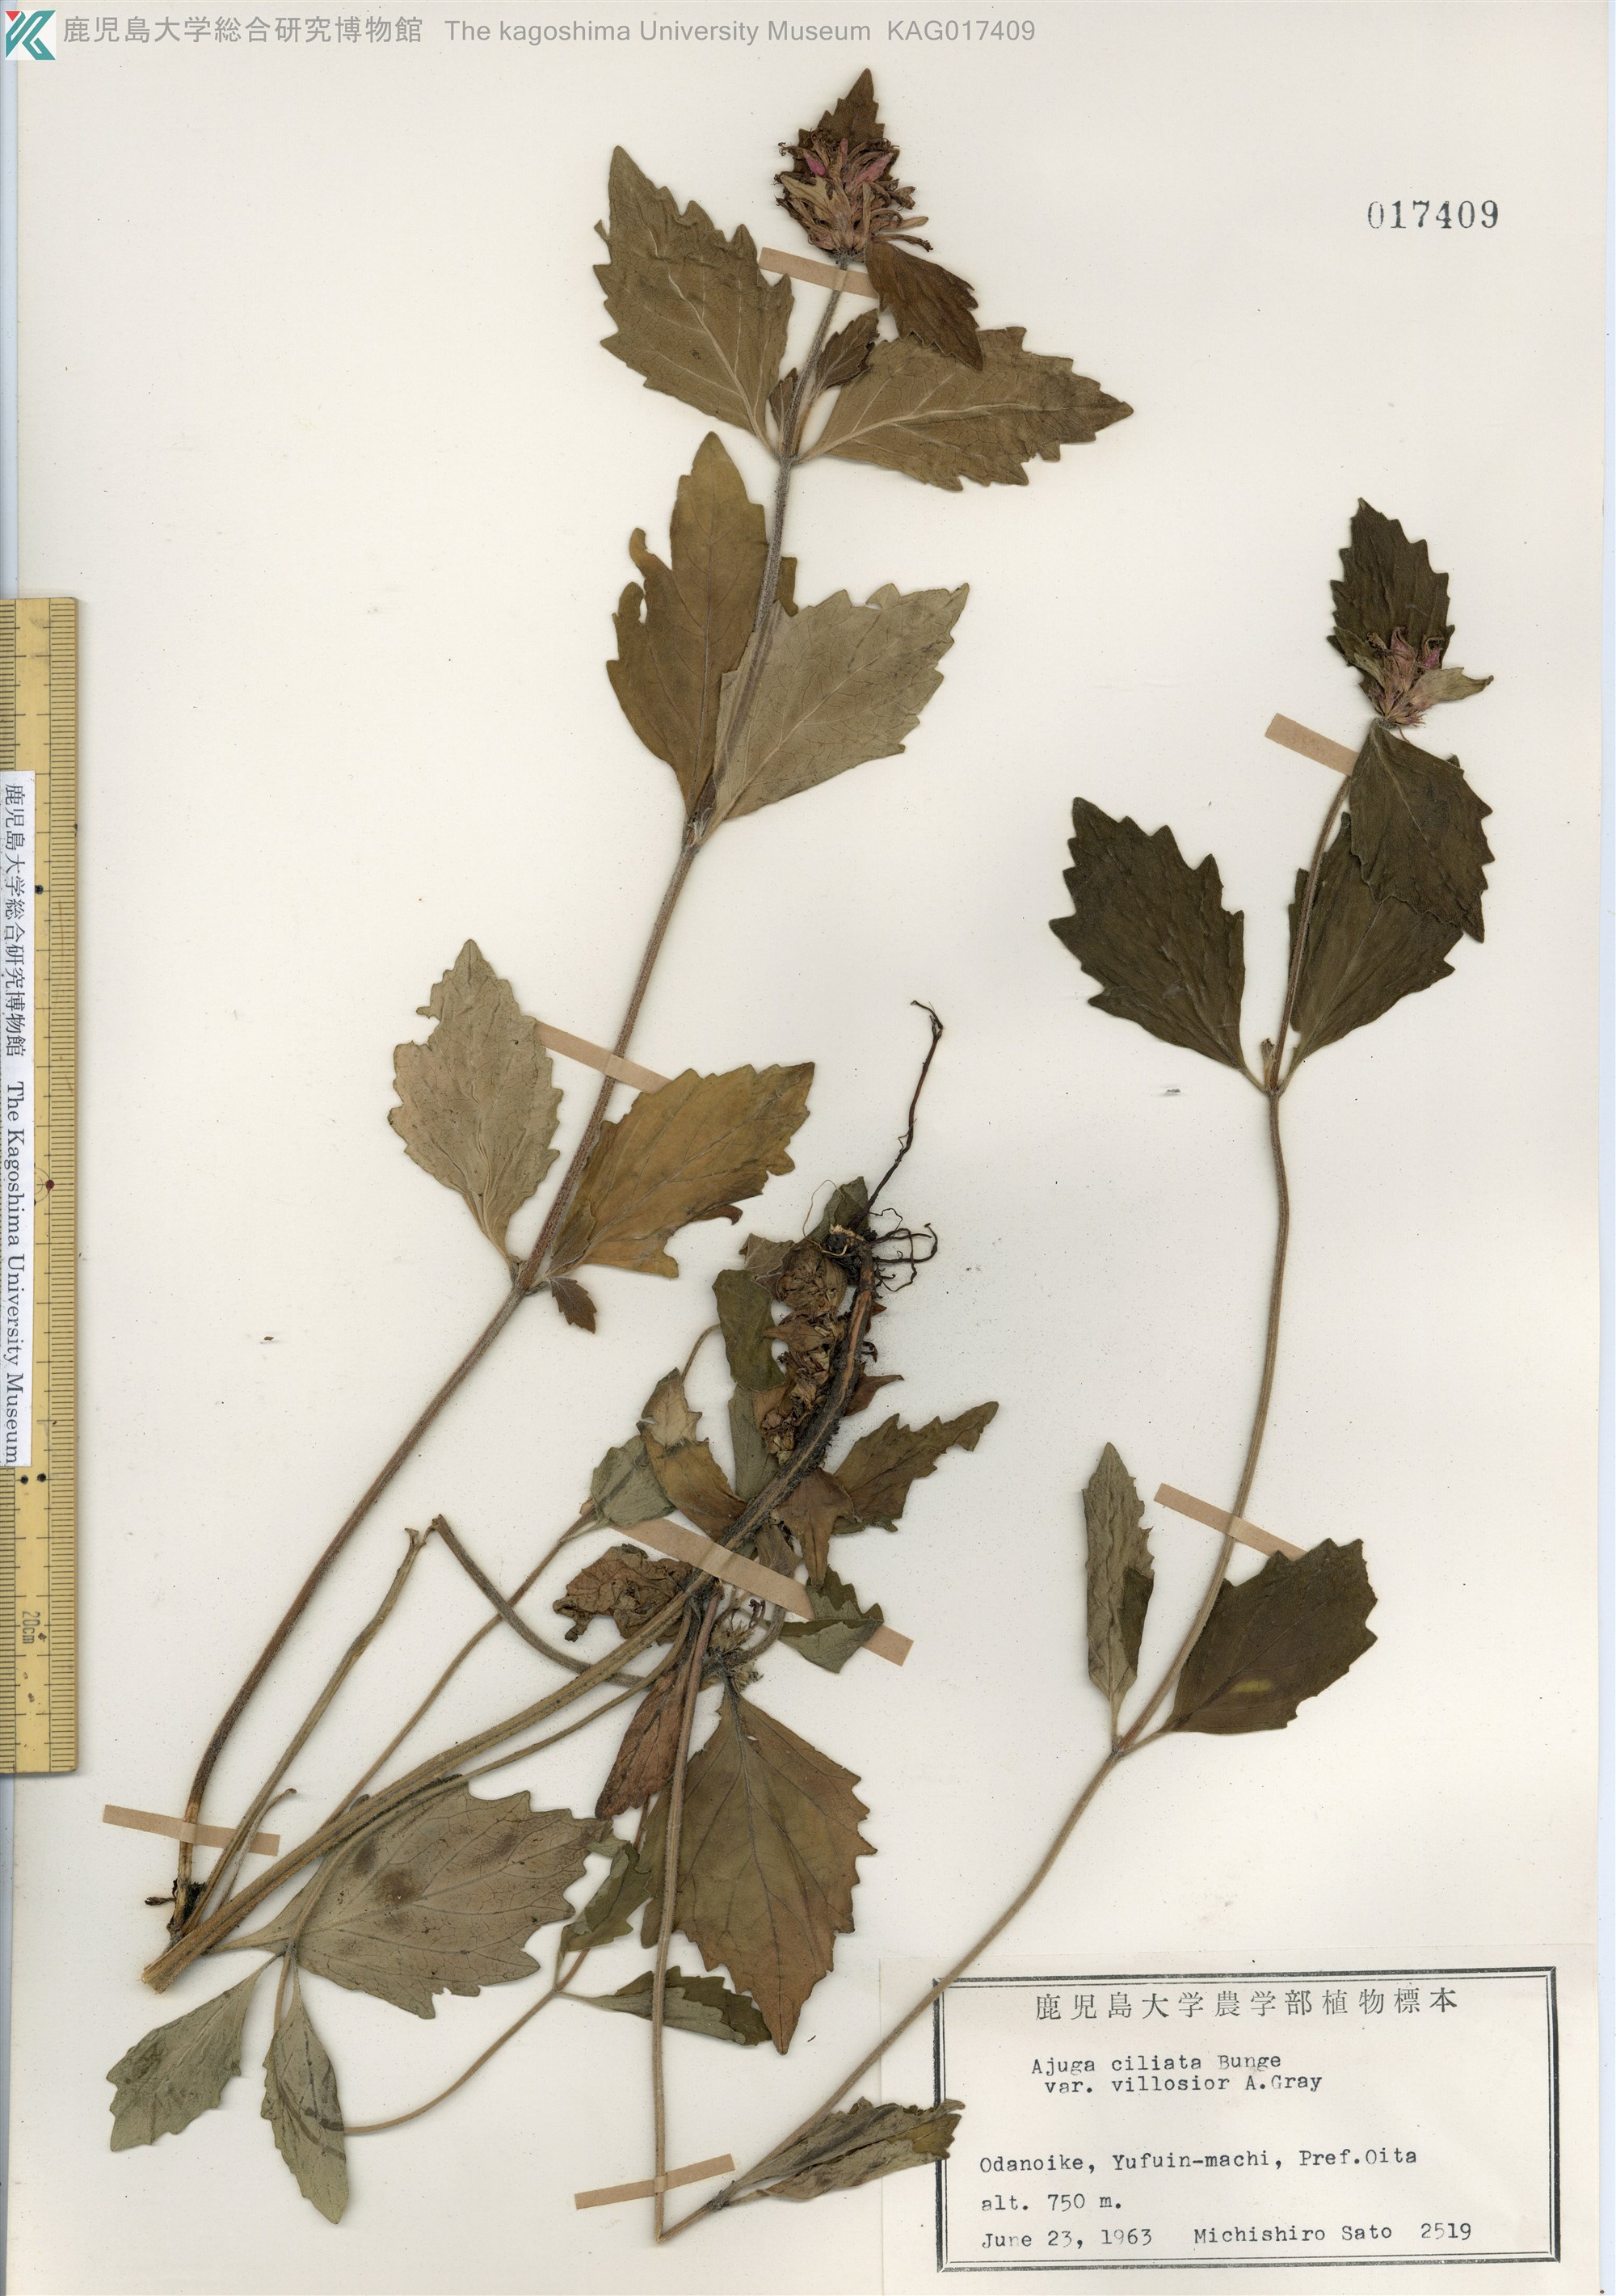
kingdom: Plantae
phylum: Tracheophyta
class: Magnoliopsida
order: Lamiales
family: Lamiaceae
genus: Ajuga
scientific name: Ajuga ciliata
